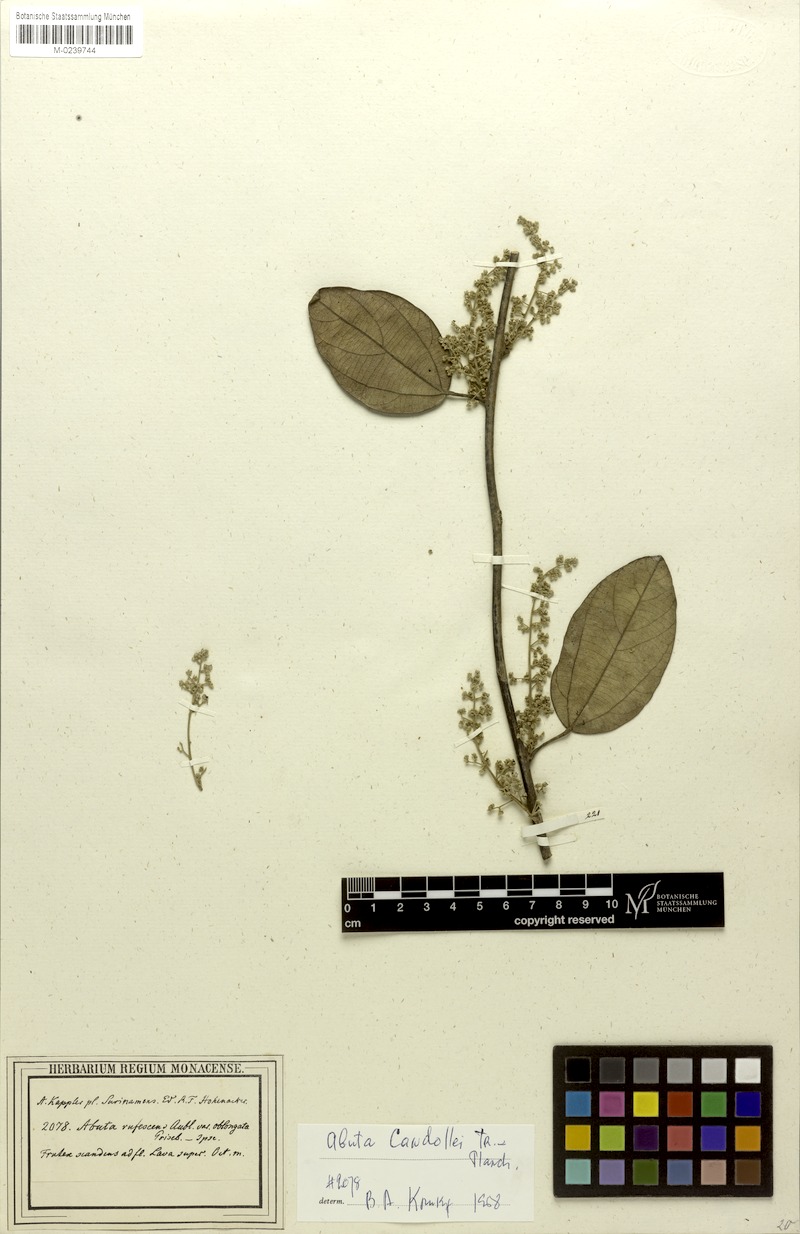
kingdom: Plantae
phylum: Tracheophyta
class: Magnoliopsida
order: Ranunculales
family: Menispermaceae
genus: Abuta
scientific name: Abuta candollei
